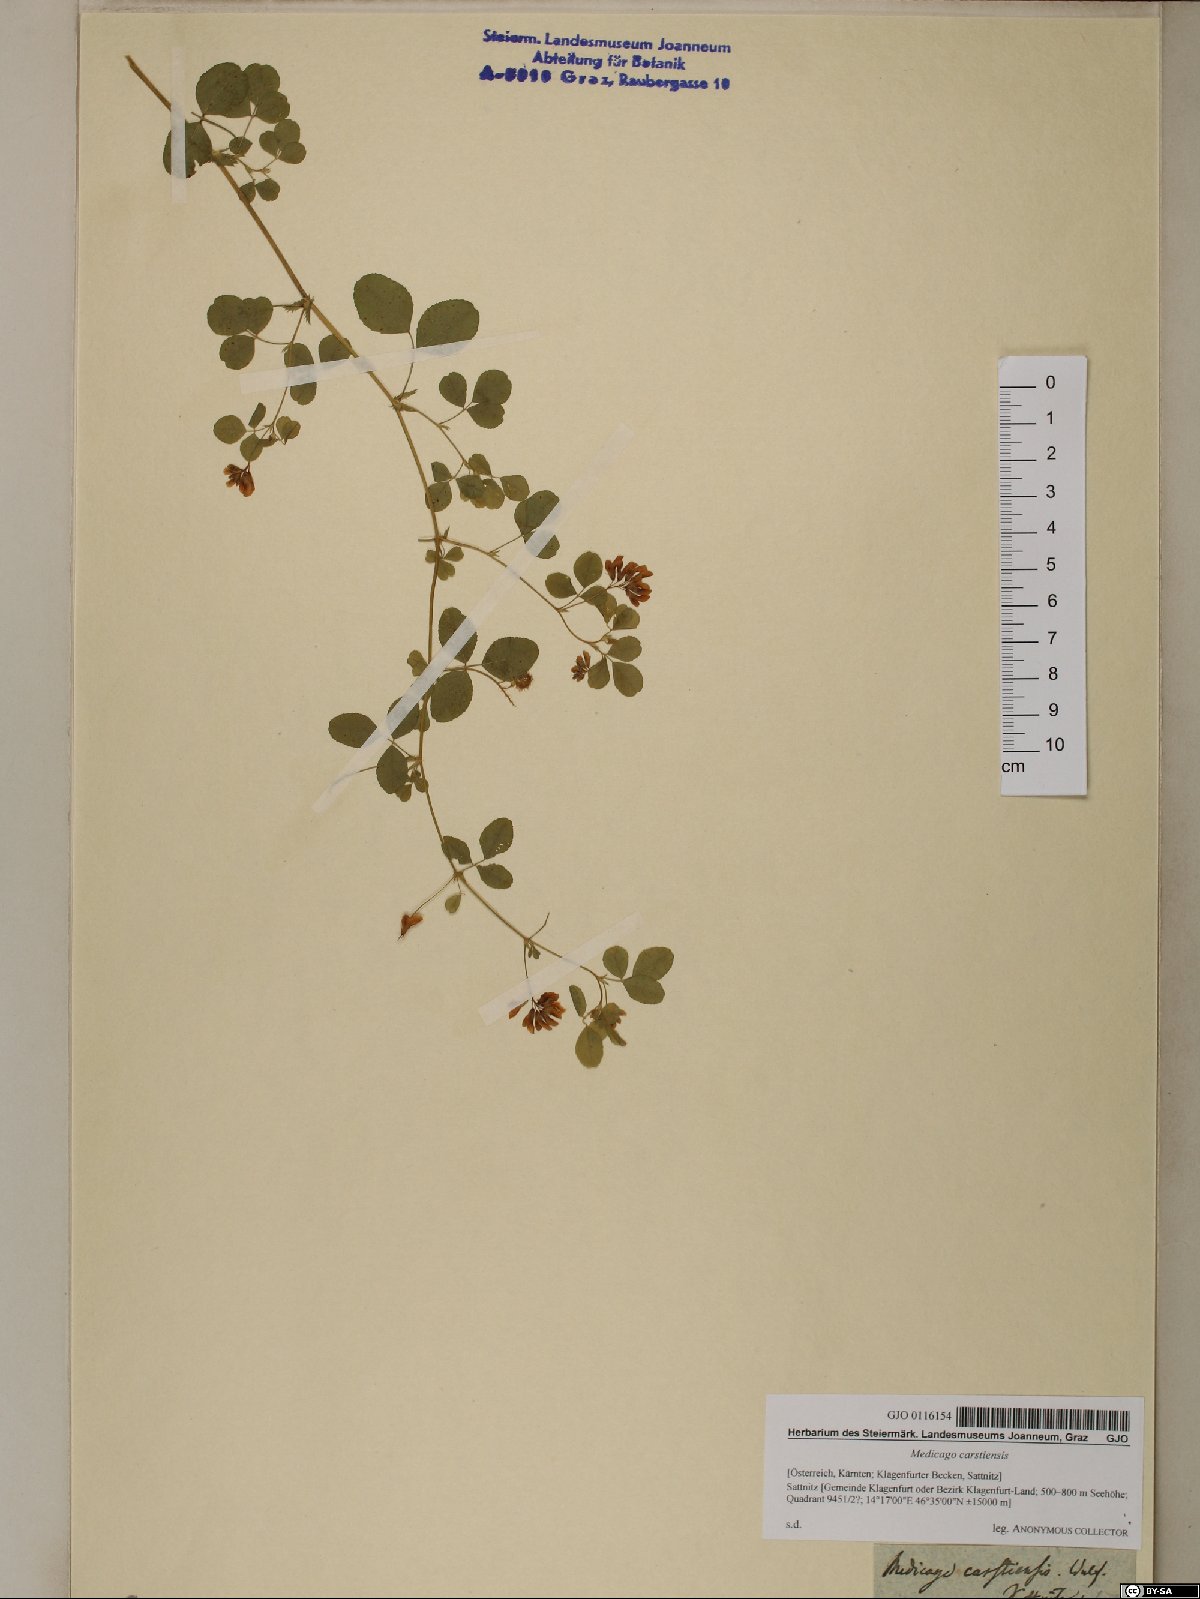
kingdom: Plantae
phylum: Tracheophyta
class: Magnoliopsida
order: Fabales
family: Fabaceae
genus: Medicago
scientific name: Medicago carstiensis
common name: Creeping-rooted medic
